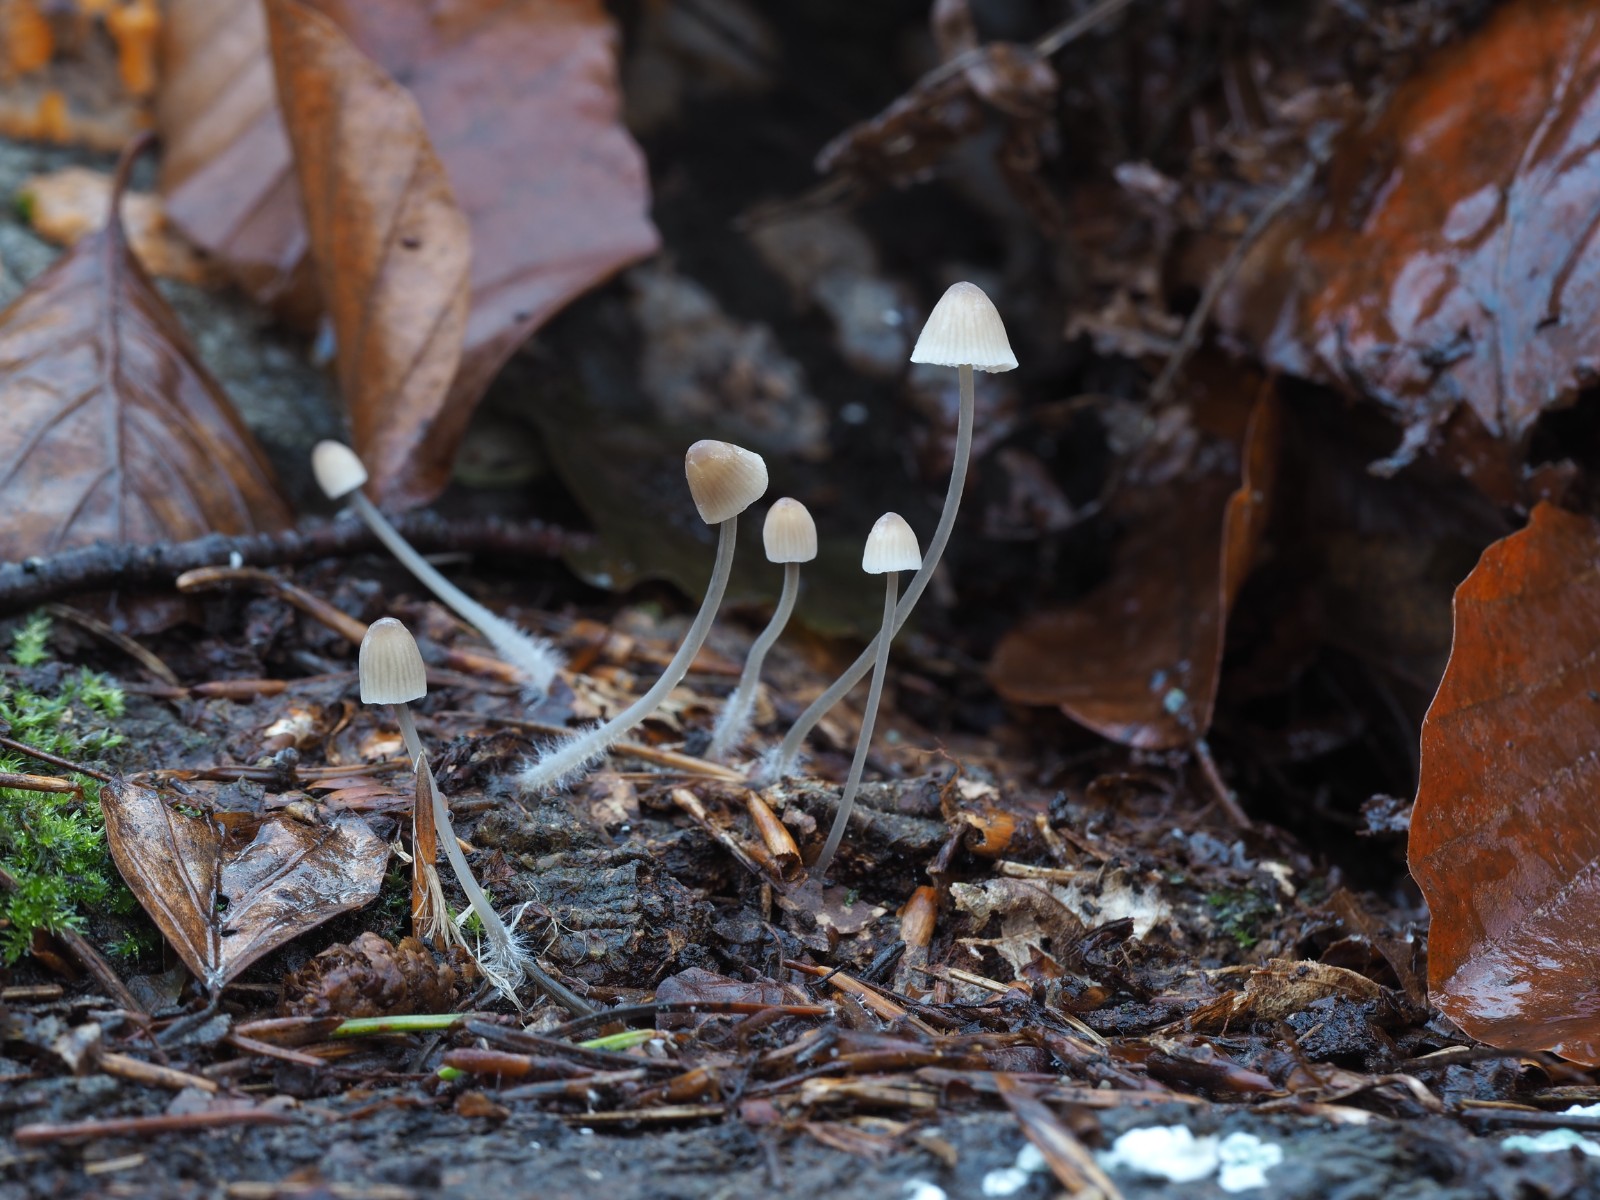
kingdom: Fungi
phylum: Basidiomycota
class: Agaricomycetes
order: Agaricales
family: Mycenaceae
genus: Mycena
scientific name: Mycena metata
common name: rødlig huesvamp
